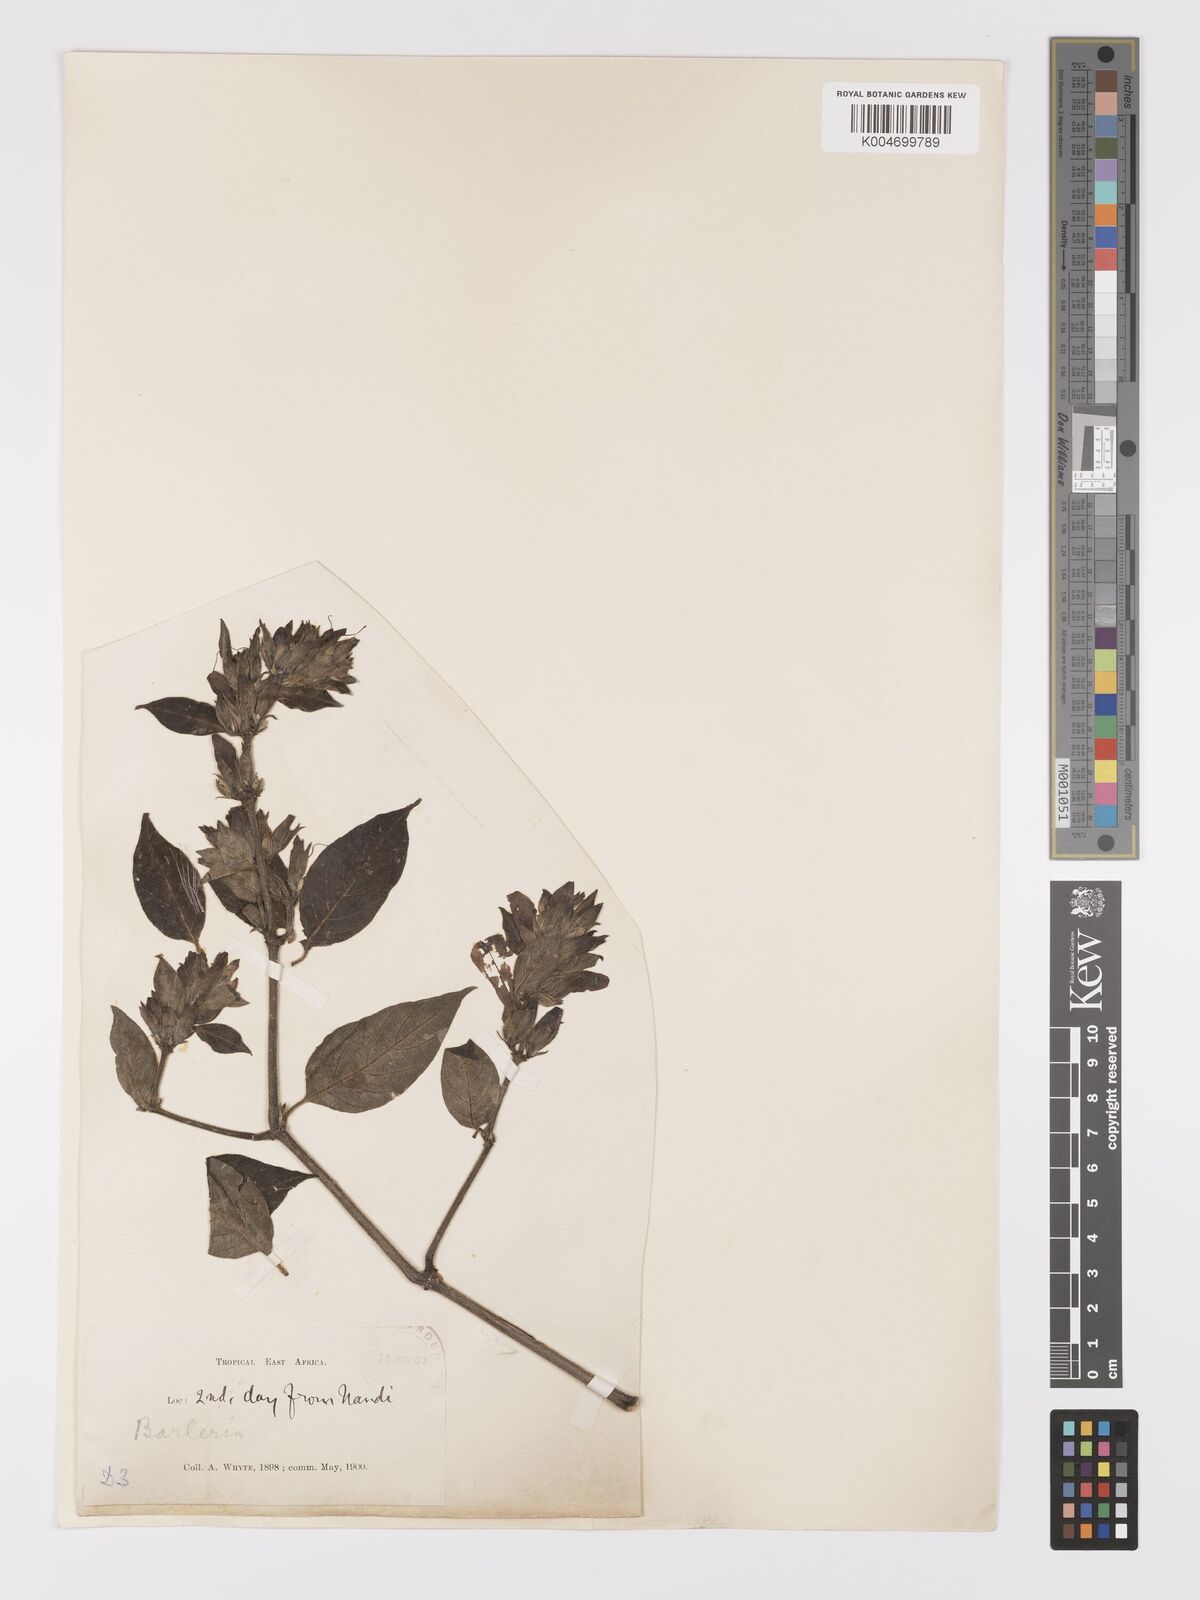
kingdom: Plantae
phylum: Tracheophyta
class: Magnoliopsida
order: Lamiales
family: Acanthaceae
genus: Barleria
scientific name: Barleria ventricosa
